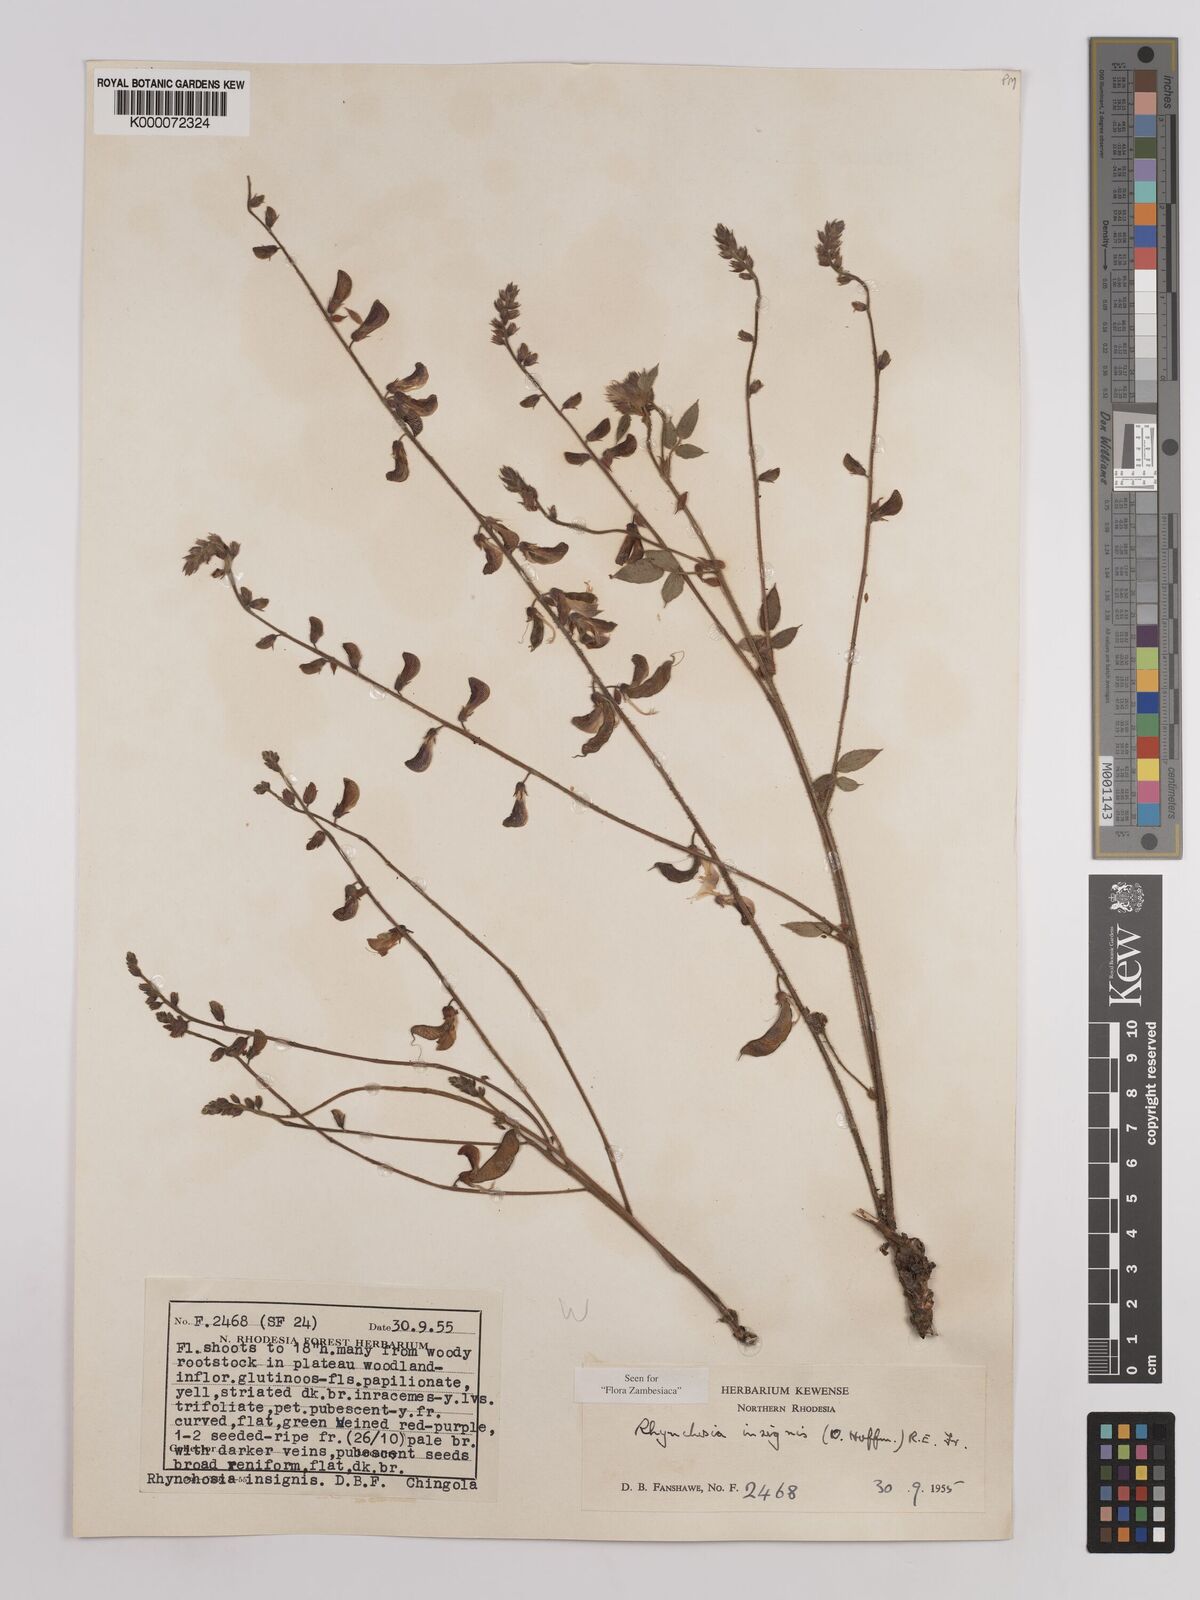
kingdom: Plantae
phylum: Tracheophyta
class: Magnoliopsida
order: Fabales
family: Fabaceae
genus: Rhynchosia
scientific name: Rhynchosia insignis
